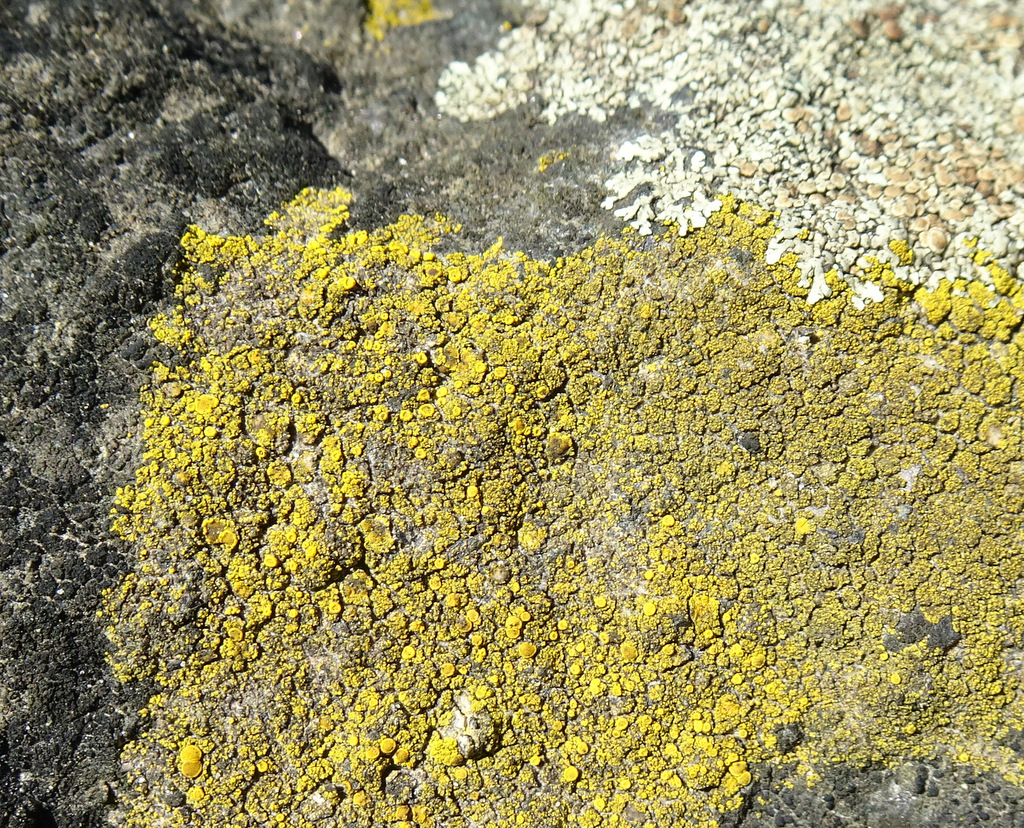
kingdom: Fungi
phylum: Ascomycota
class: Candelariomycetes
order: Candelariales
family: Candelariaceae
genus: Candelariella
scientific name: Candelariella vitellina
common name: almindelig æggeblommelav
